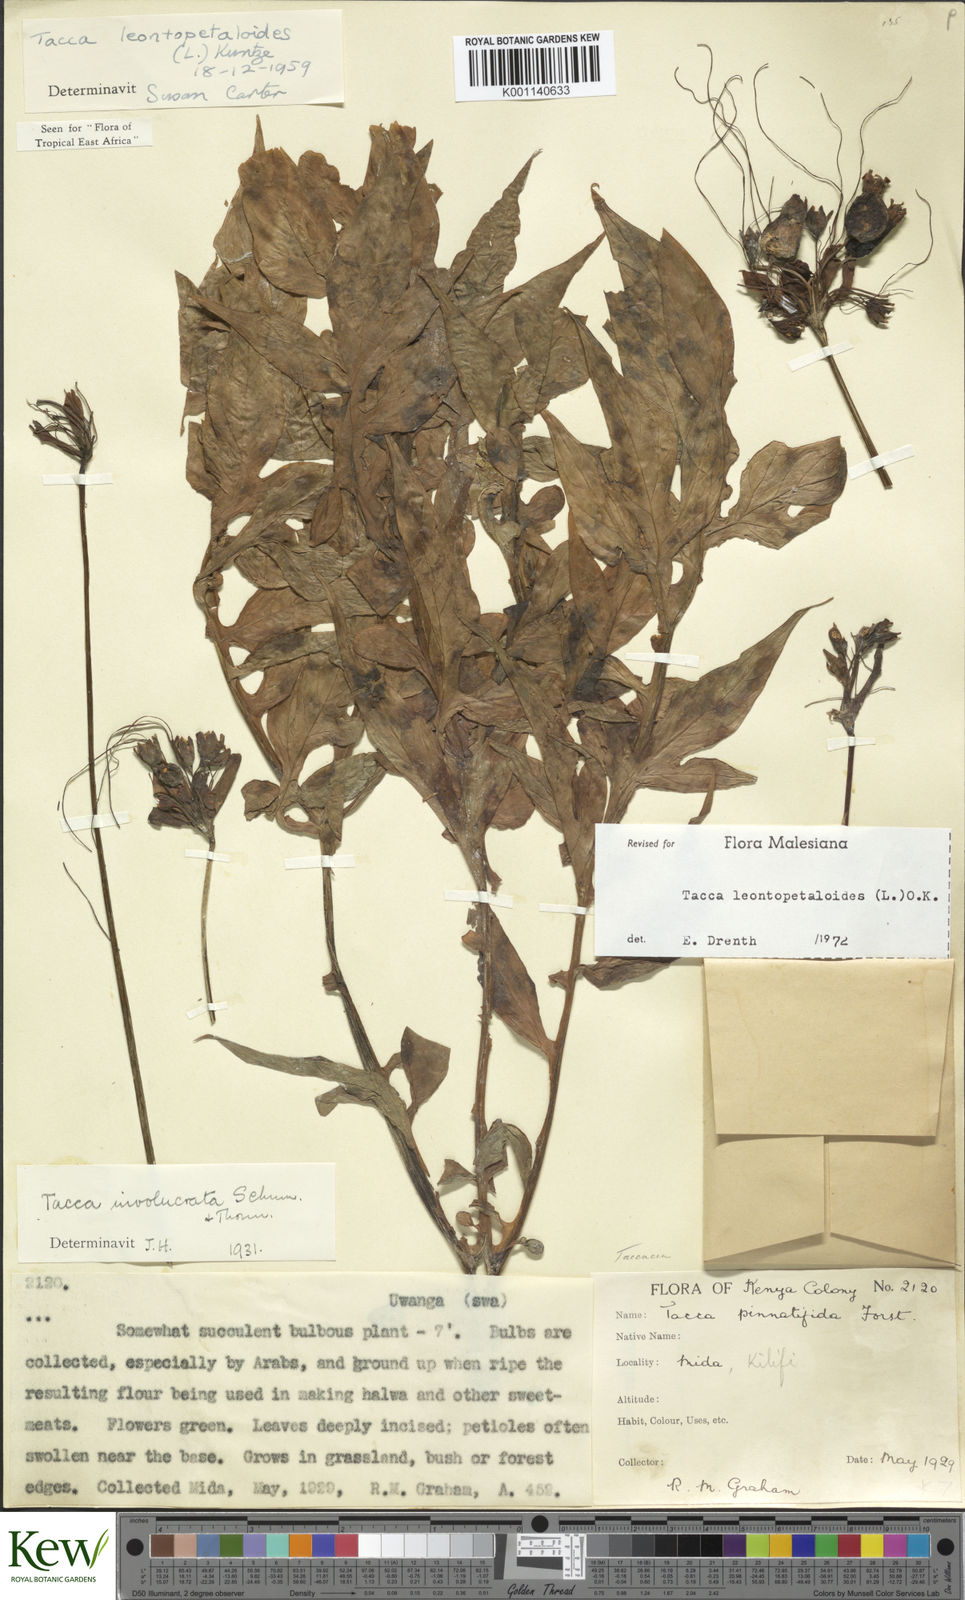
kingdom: Plantae
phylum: Tracheophyta
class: Liliopsida
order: Dioscoreales
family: Dioscoreaceae
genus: Tacca
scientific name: Tacca leontopetaloides
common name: Arrowroot
